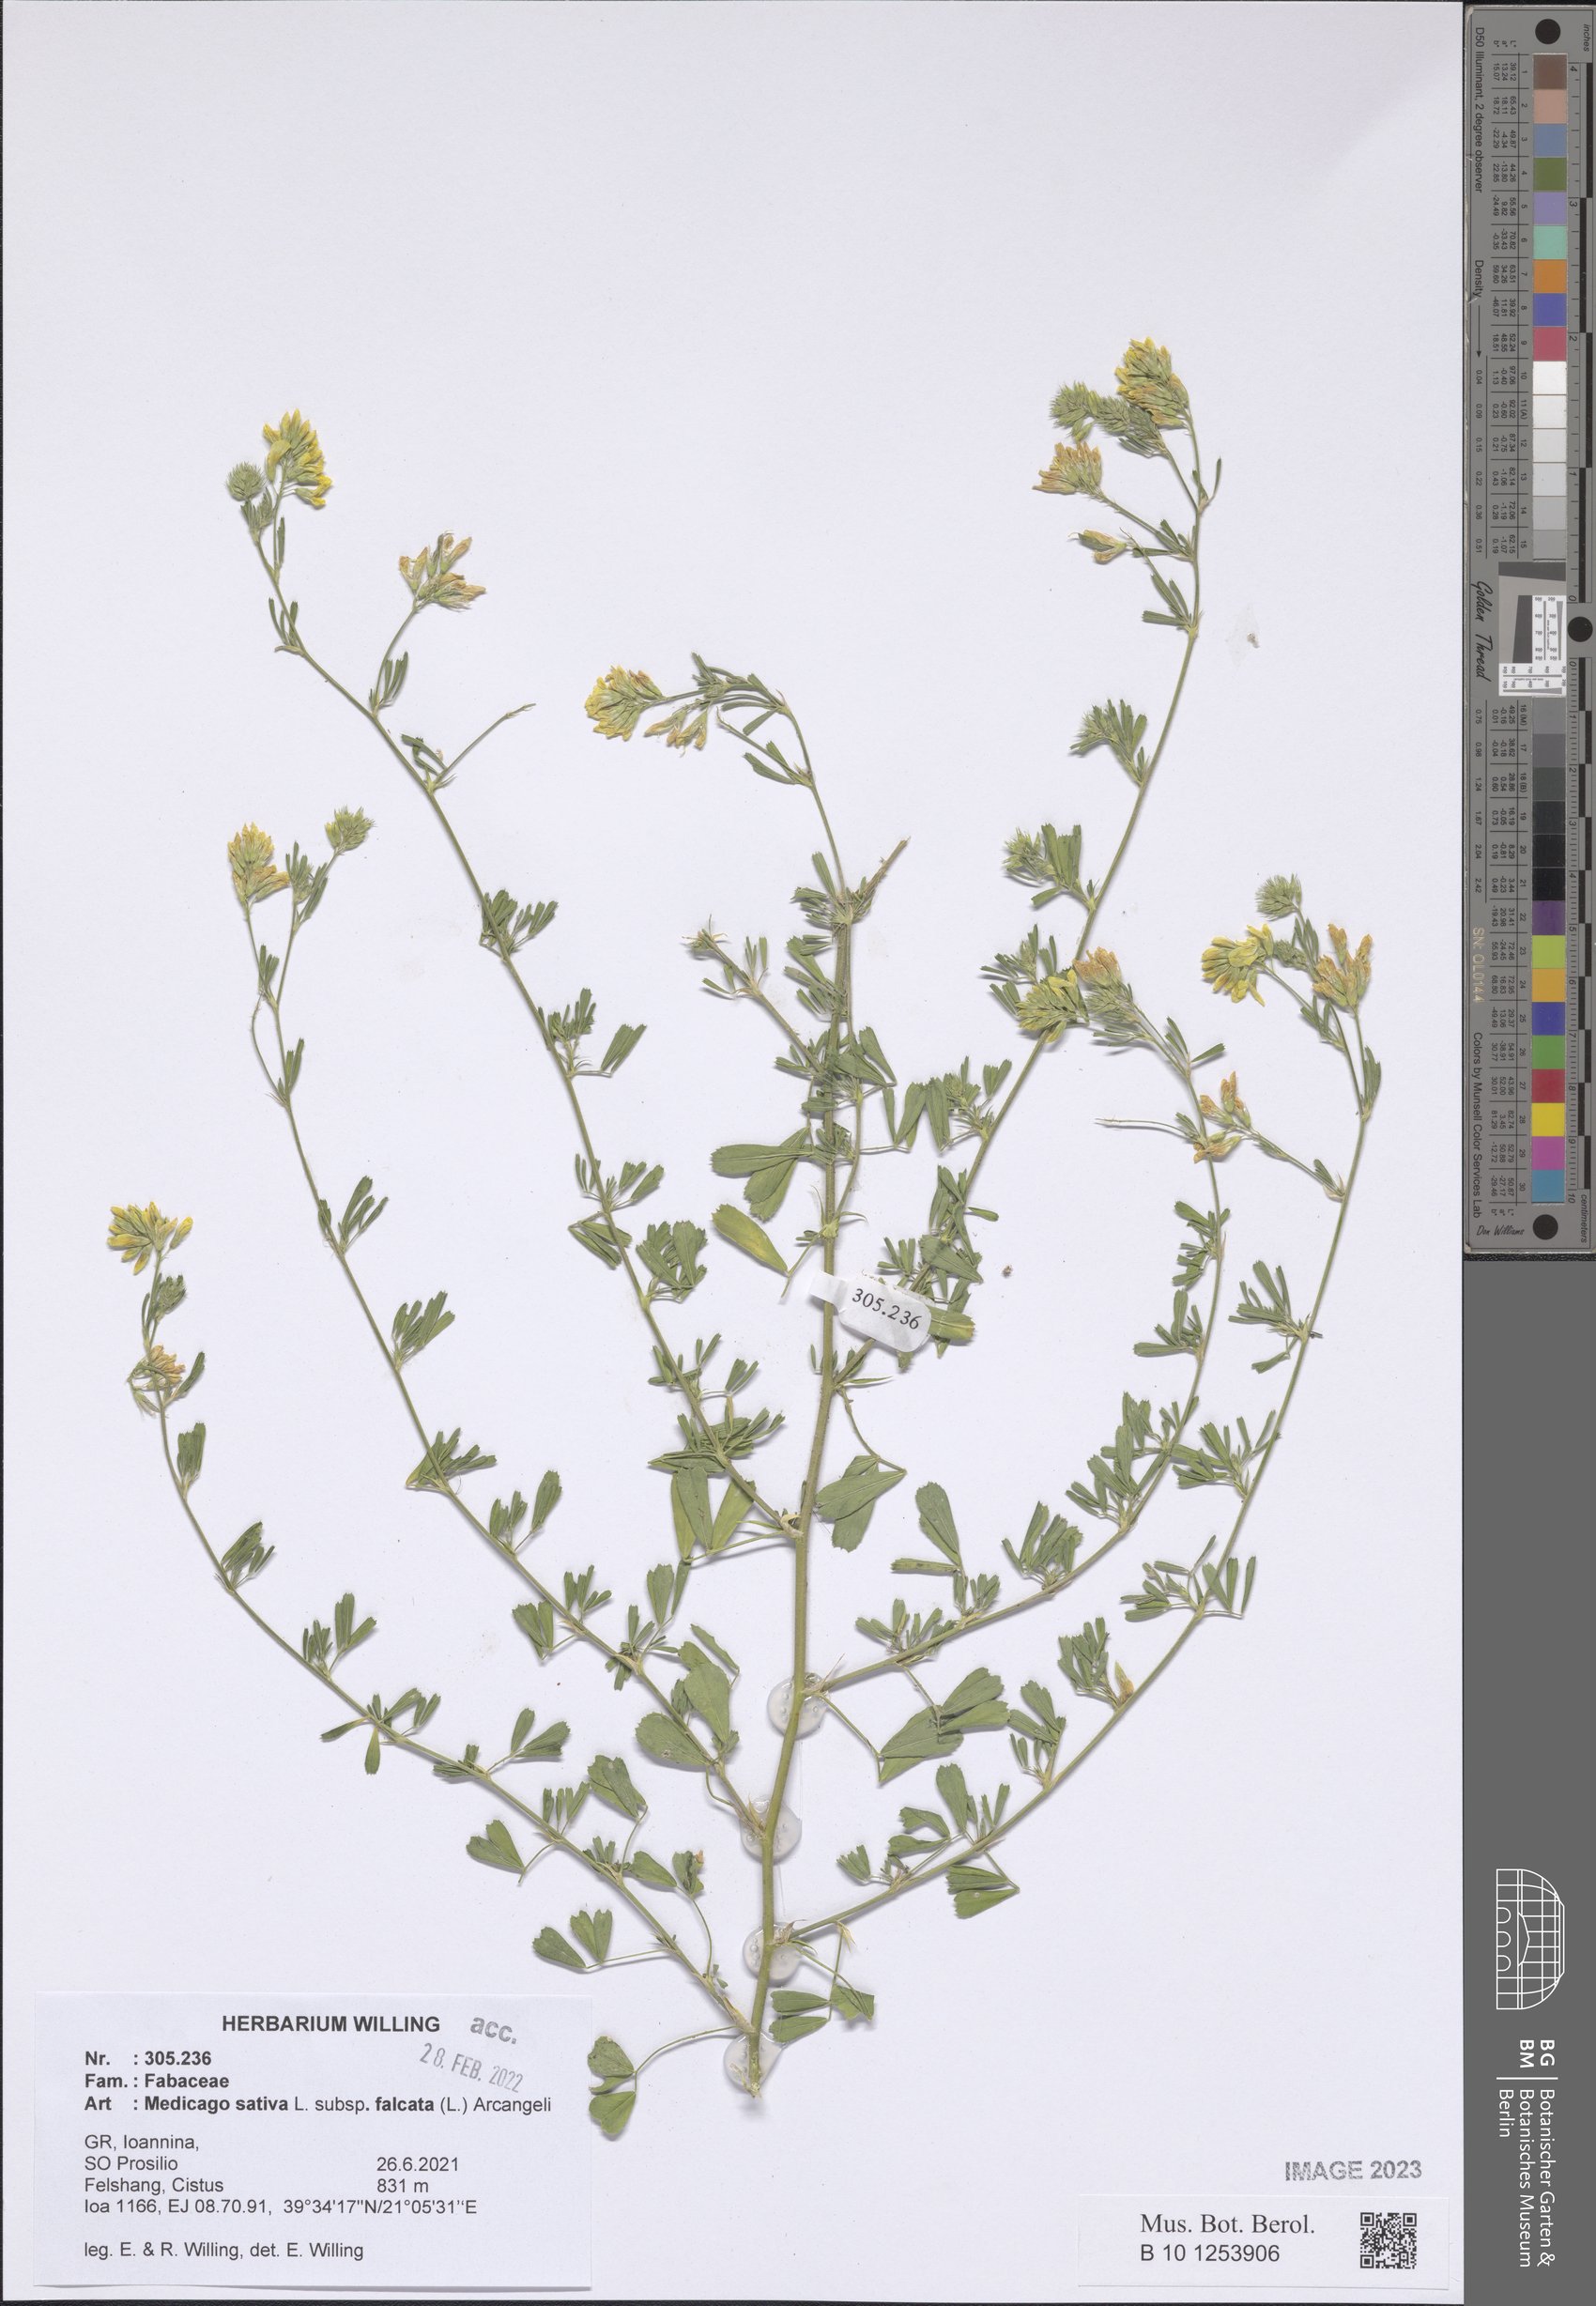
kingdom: Plantae
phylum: Tracheophyta
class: Magnoliopsida
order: Fabales
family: Fabaceae
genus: Medicago
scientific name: Medicago falcata
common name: Sickle medick
